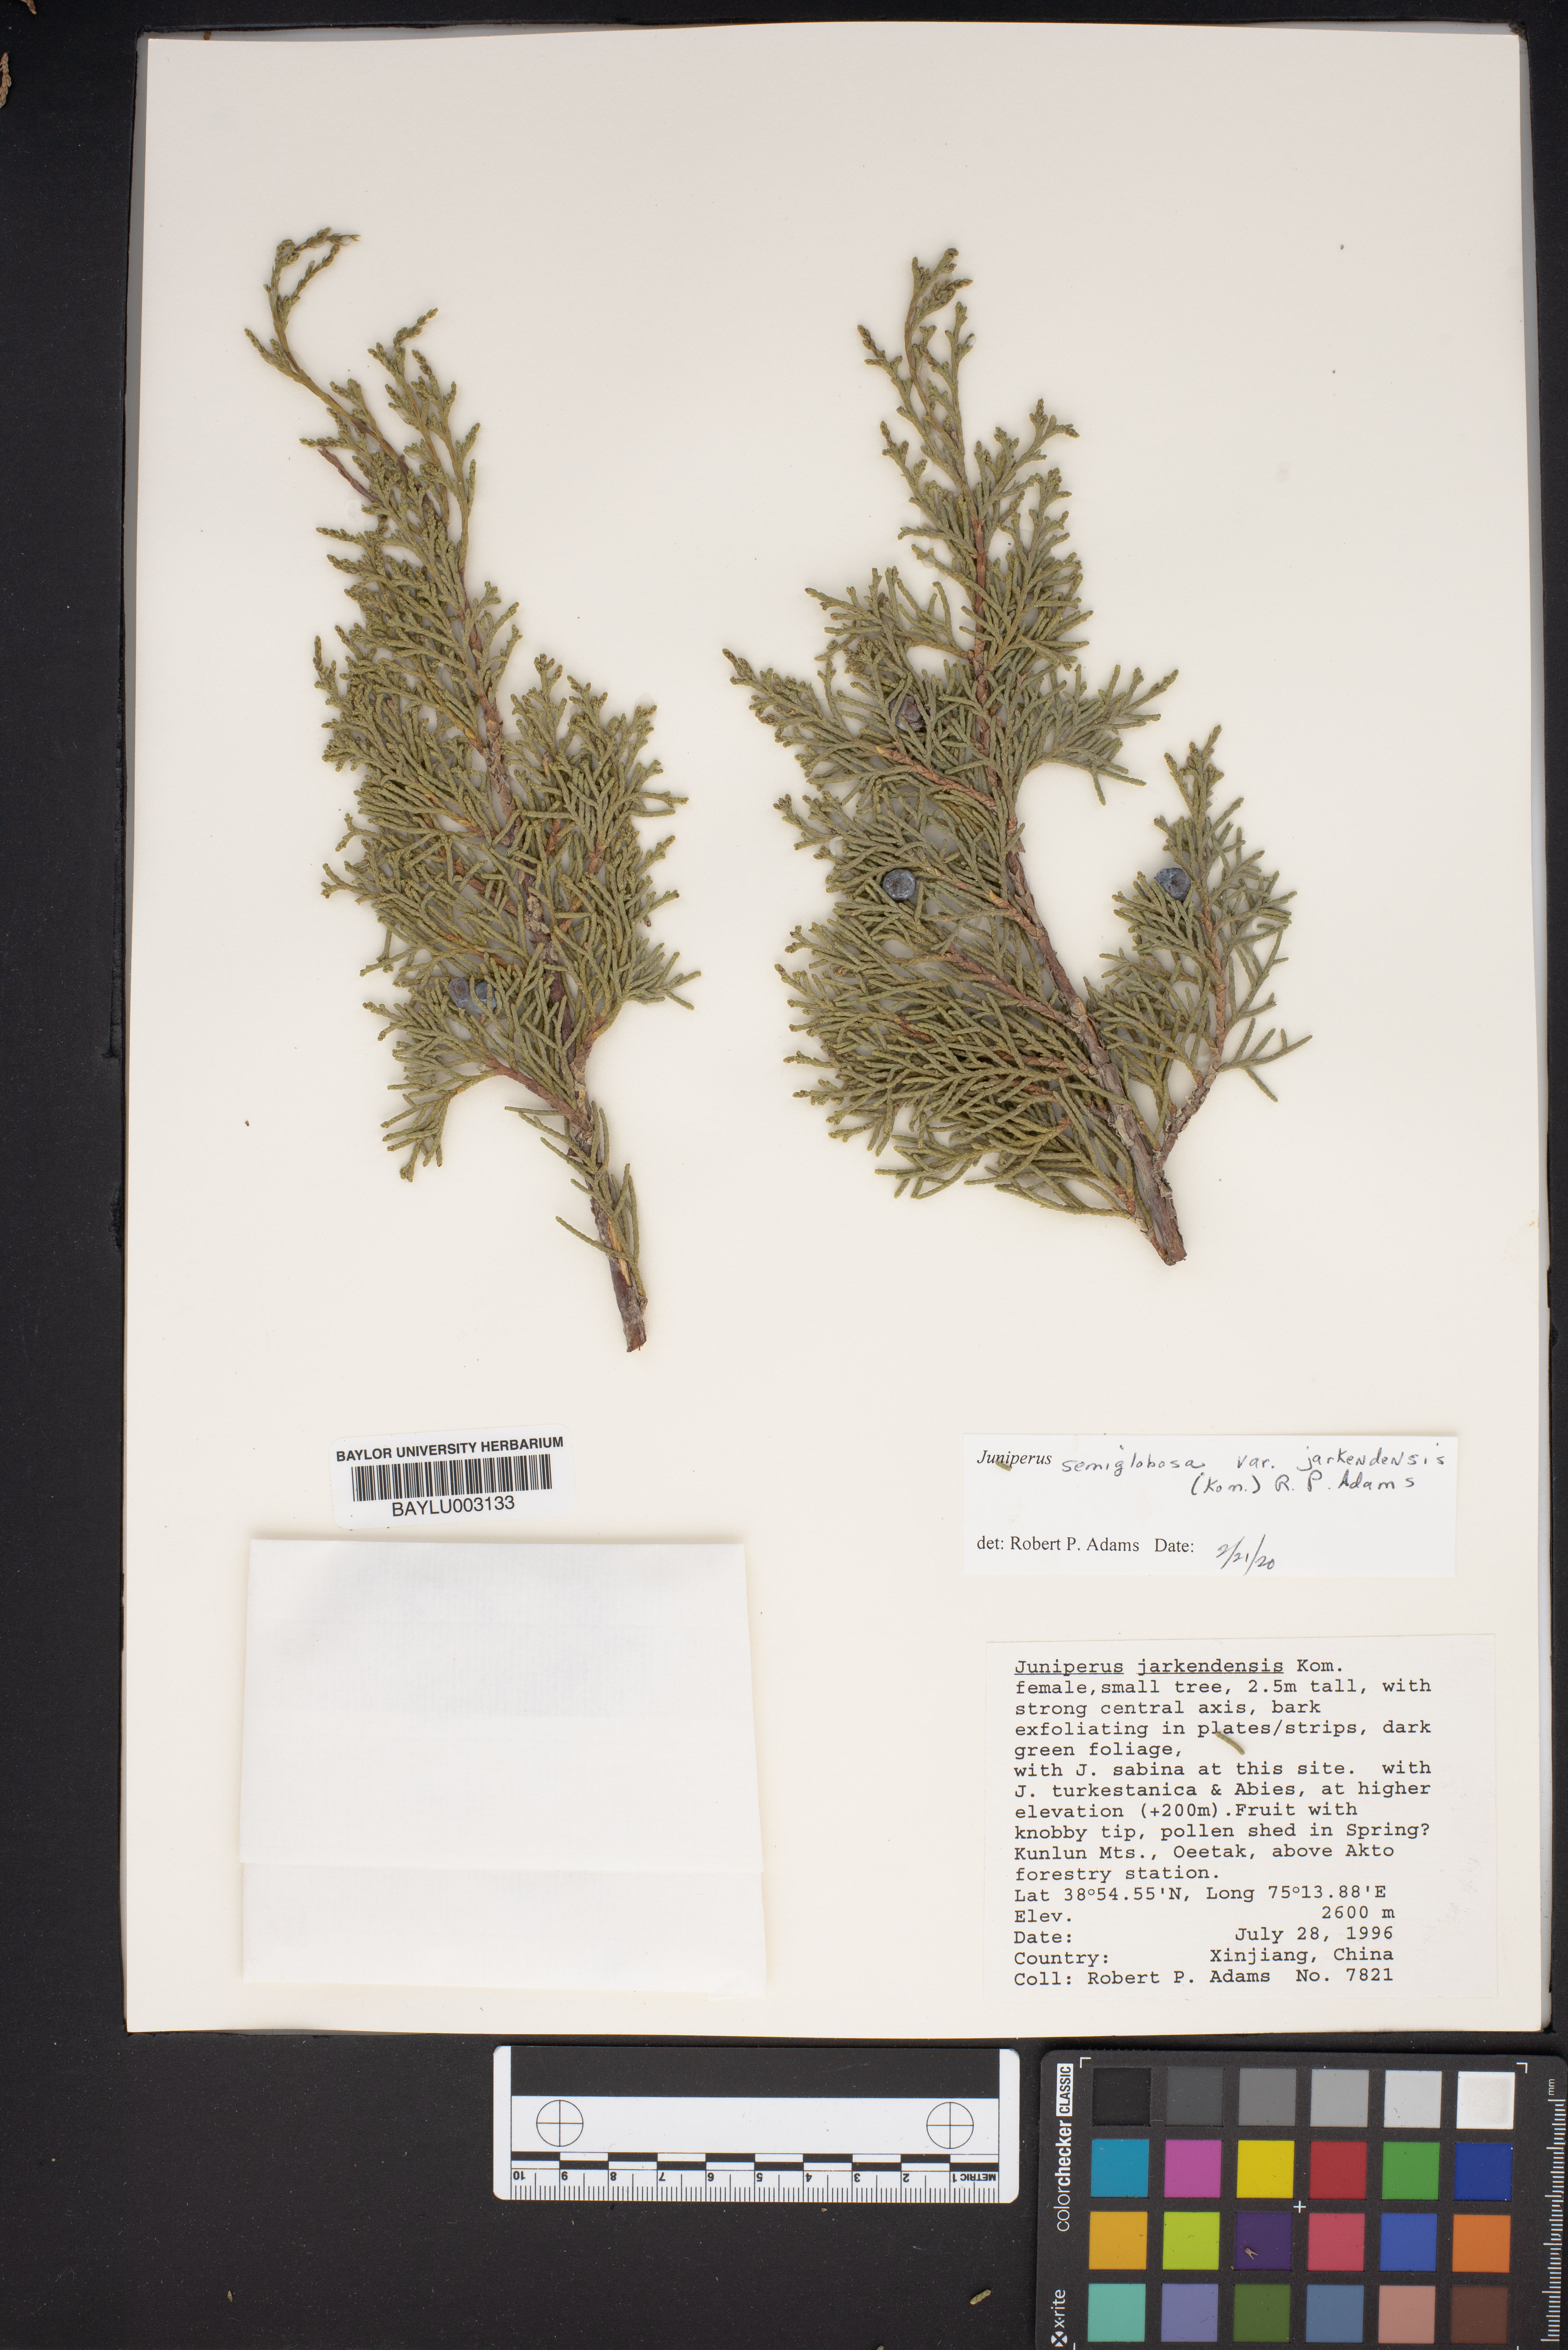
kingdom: Plantae
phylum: Tracheophyta
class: Pinopsida
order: Pinales
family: Cupressaceae
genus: Juniperus
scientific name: Juniperus semiglobosa
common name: Pencil cedar
